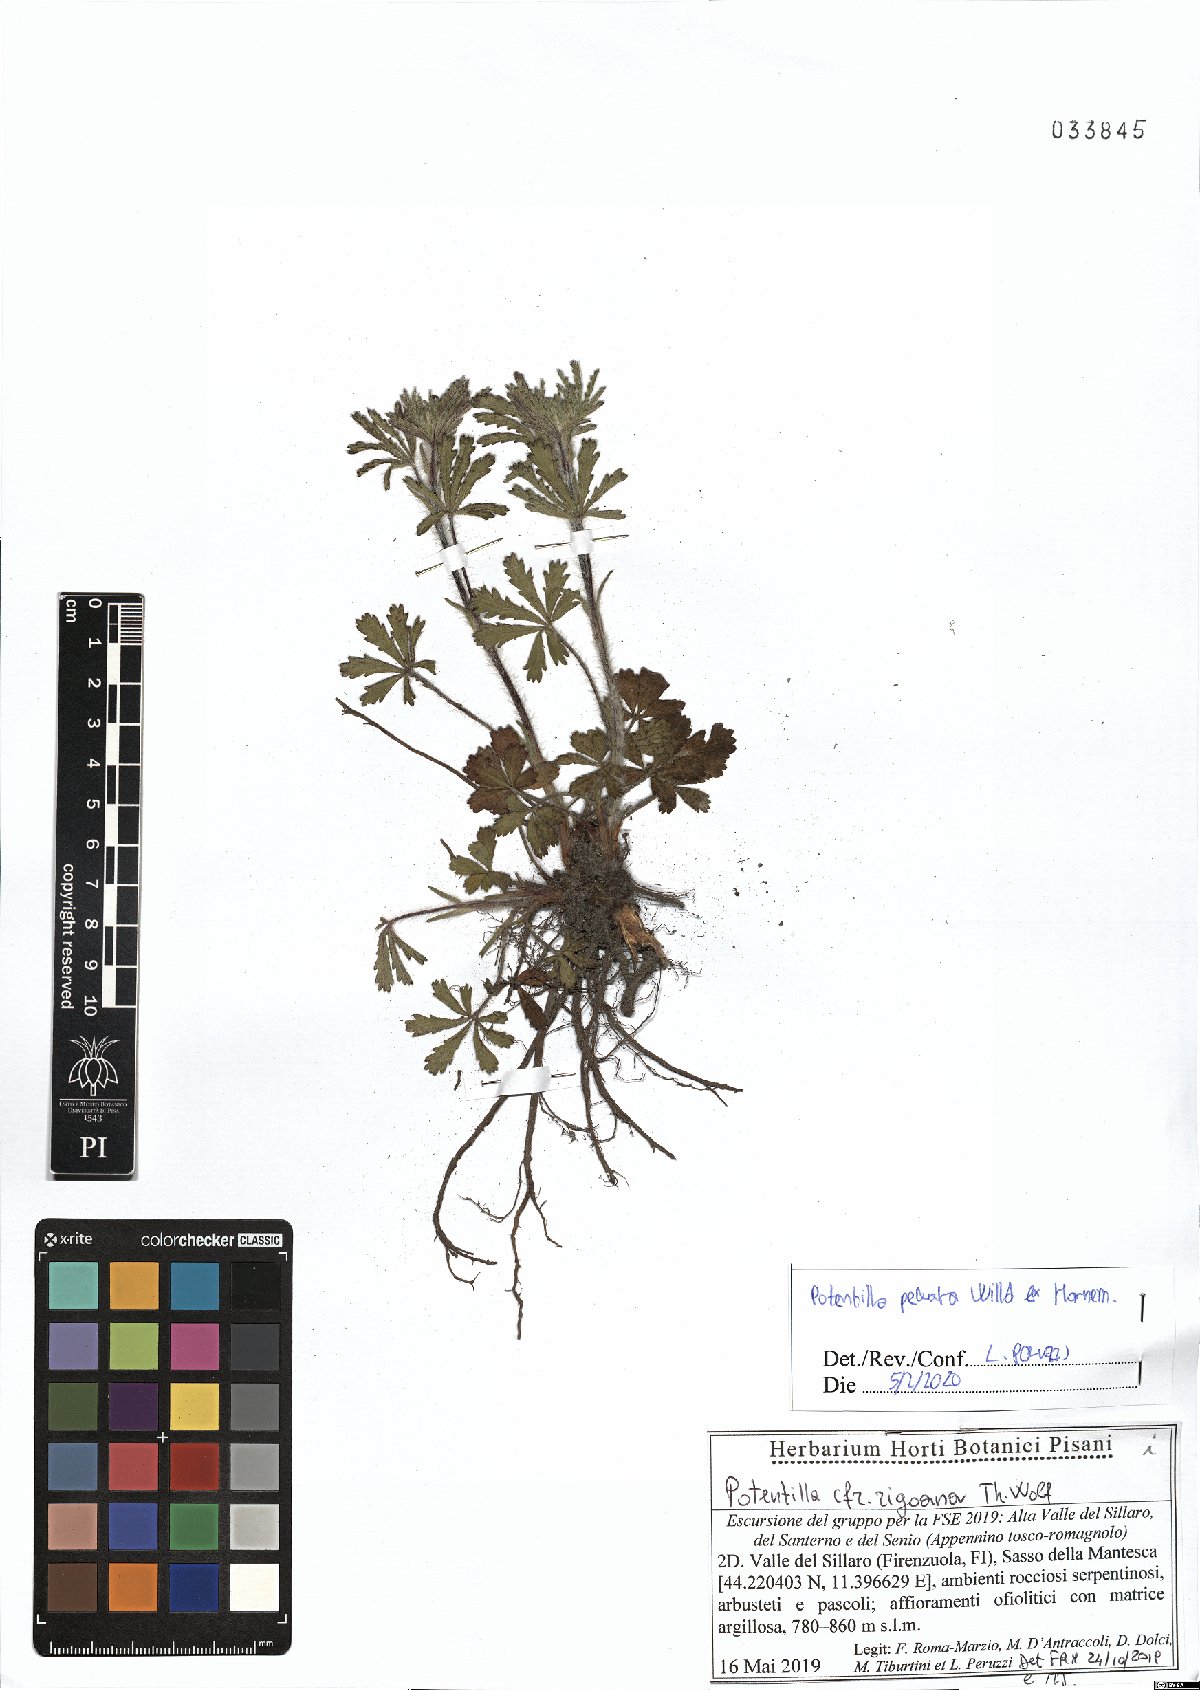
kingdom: Plantae
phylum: Tracheophyta
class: Magnoliopsida
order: Rosales
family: Rosaceae
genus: Potentilla
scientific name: Potentilla pedata
